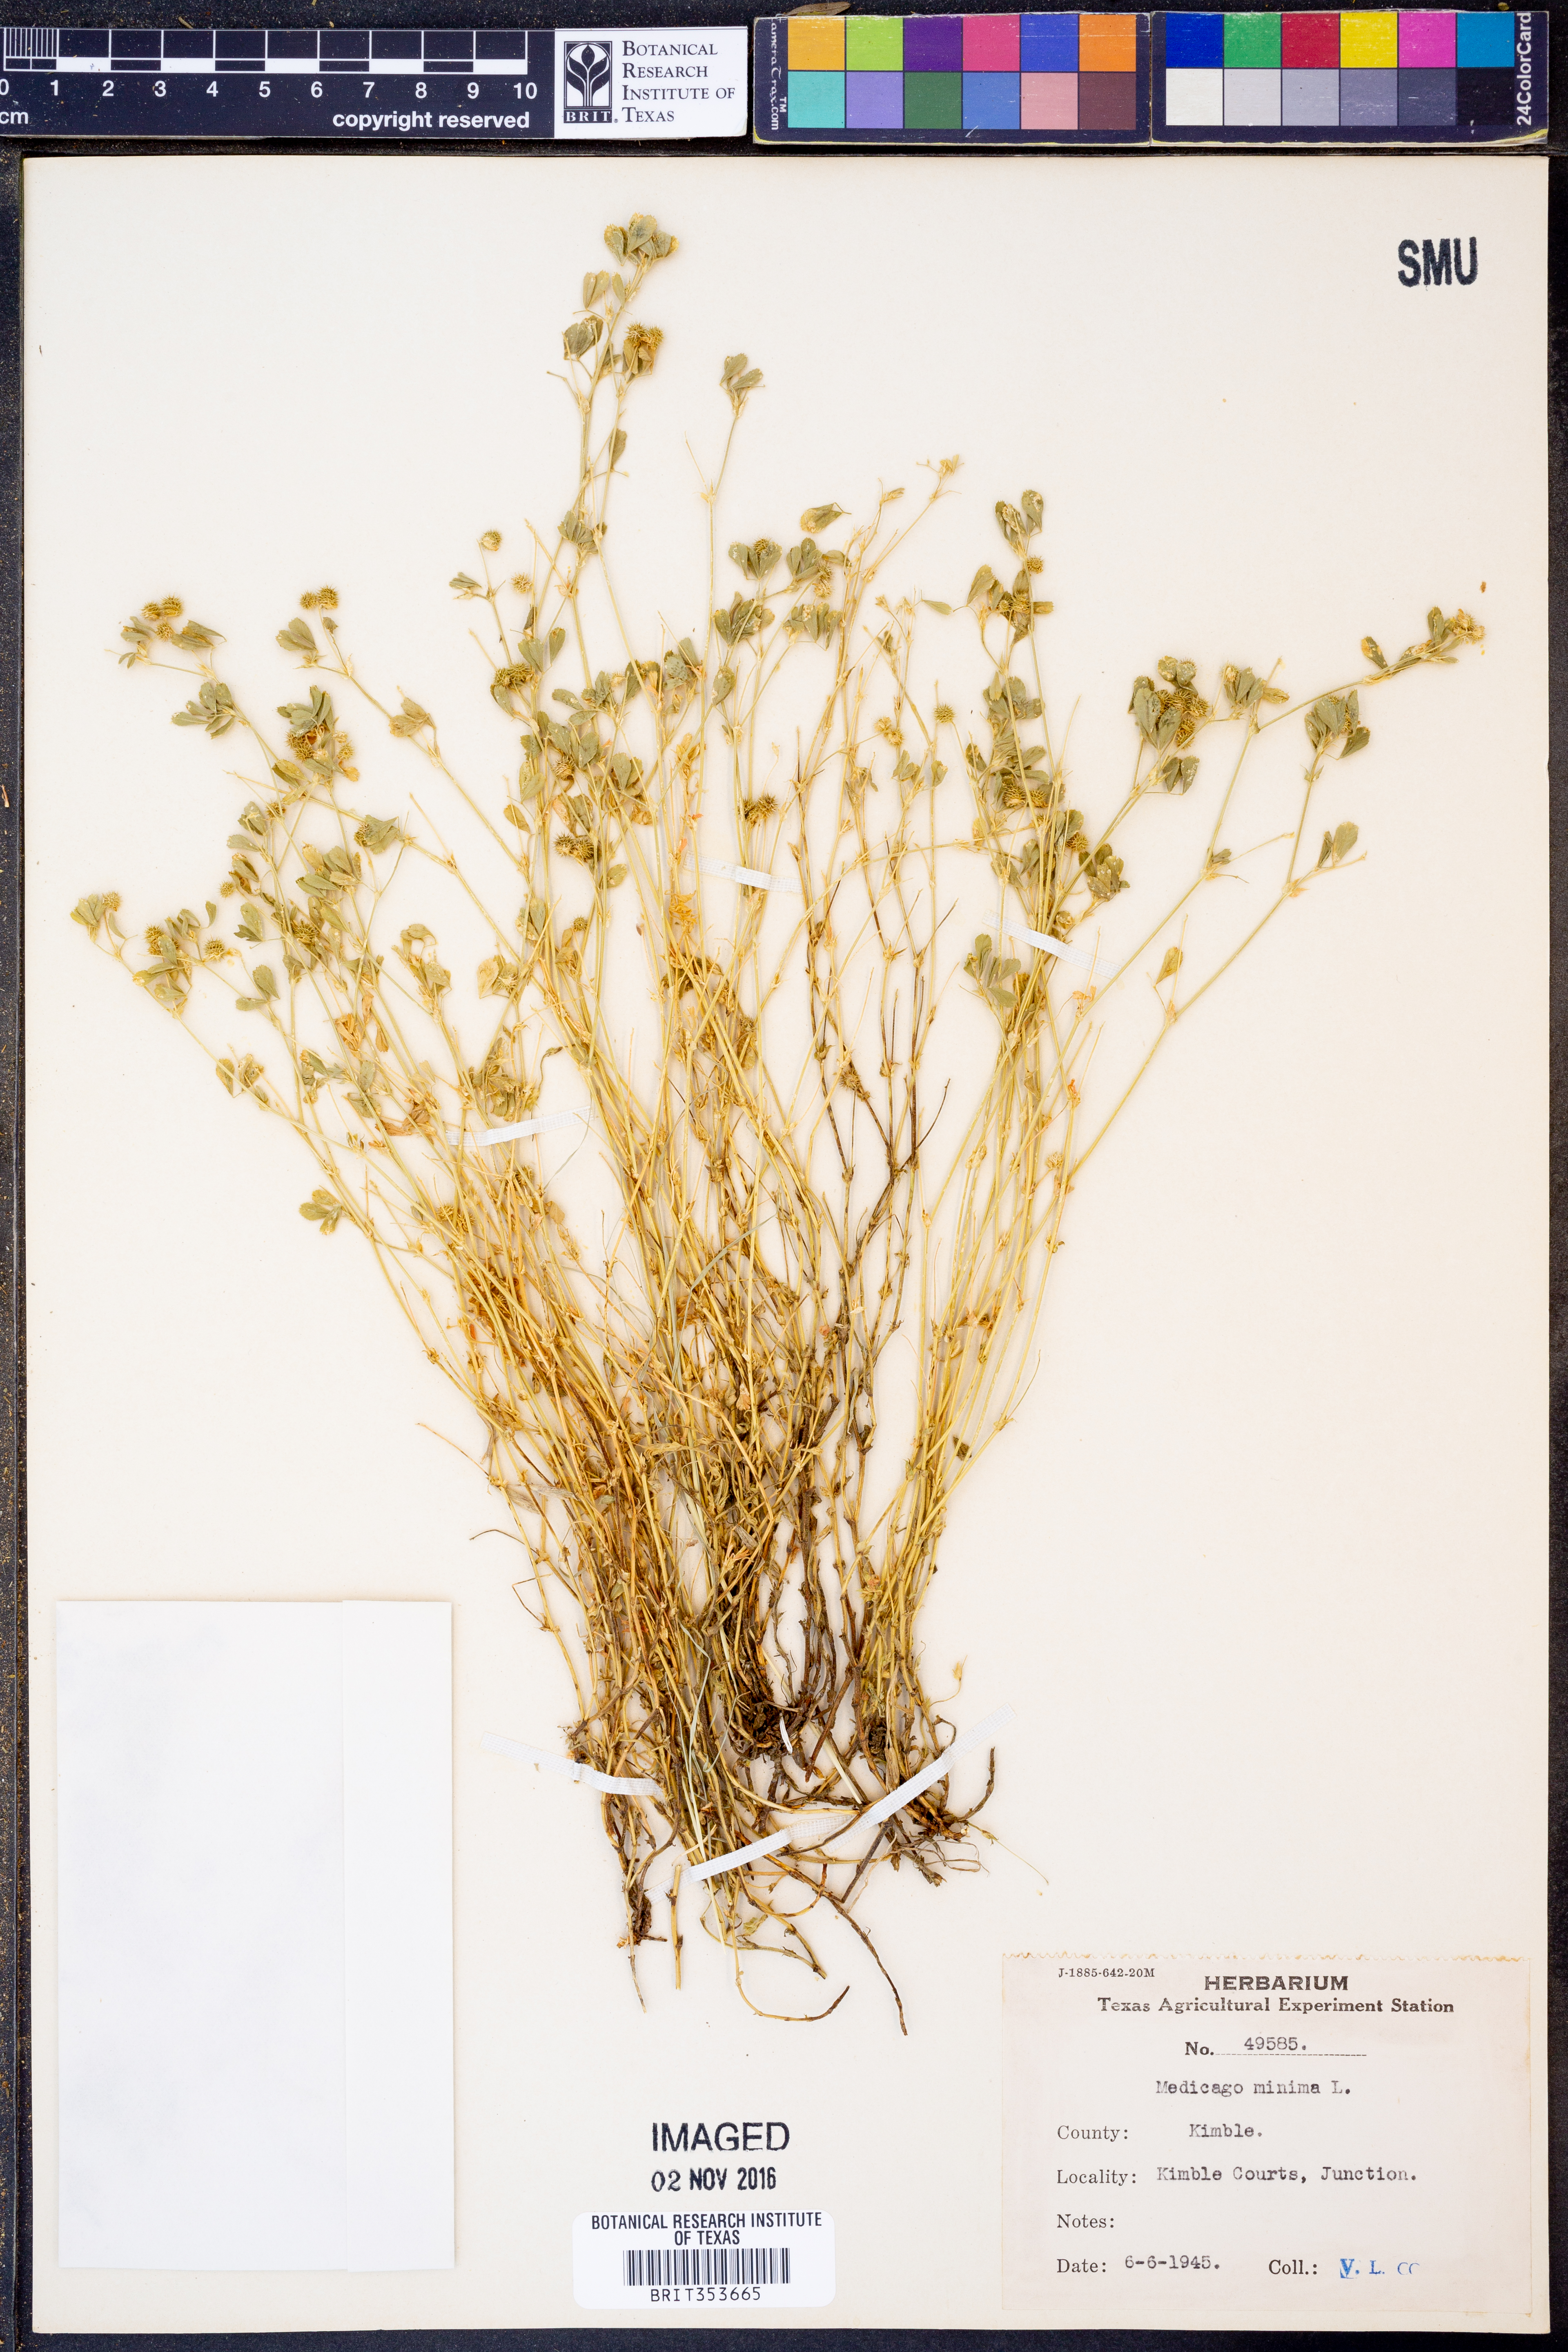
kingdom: Plantae
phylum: Tracheophyta
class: Magnoliopsida
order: Fabales
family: Fabaceae
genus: Medicago
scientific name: Medicago minima
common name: Little bur-clover
